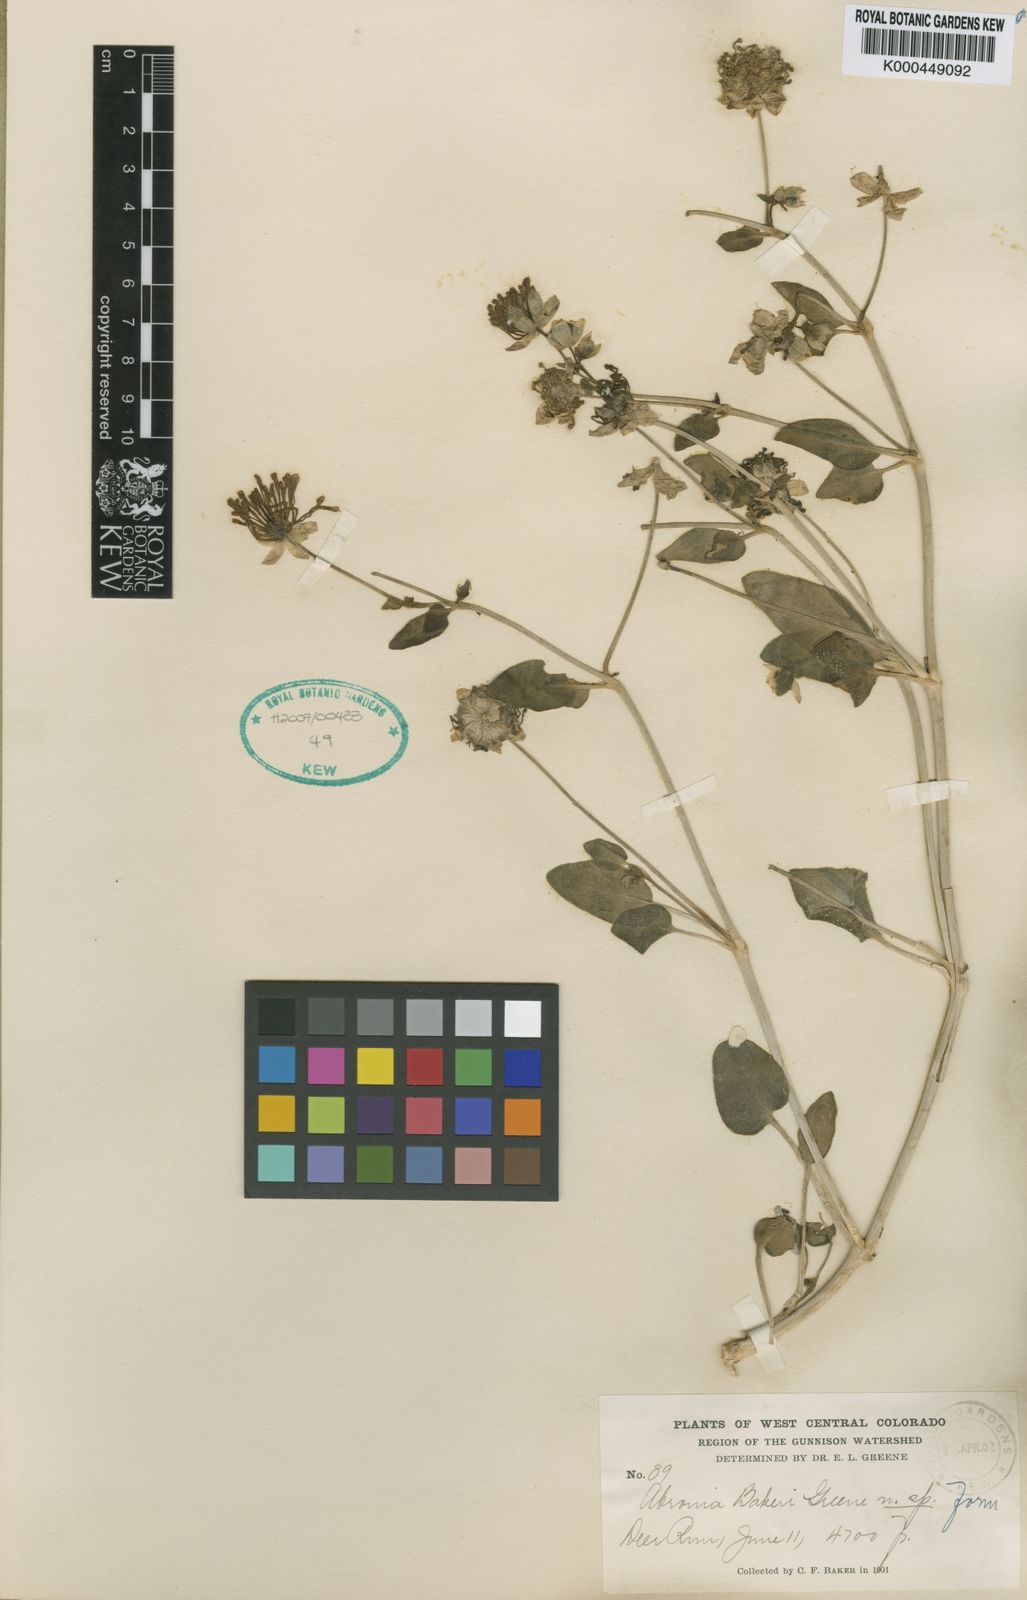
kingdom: Plantae
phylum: Tracheophyta
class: Magnoliopsida
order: Caryophyllales
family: Nyctaginaceae
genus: Abronia
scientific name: Abronia elliptica
